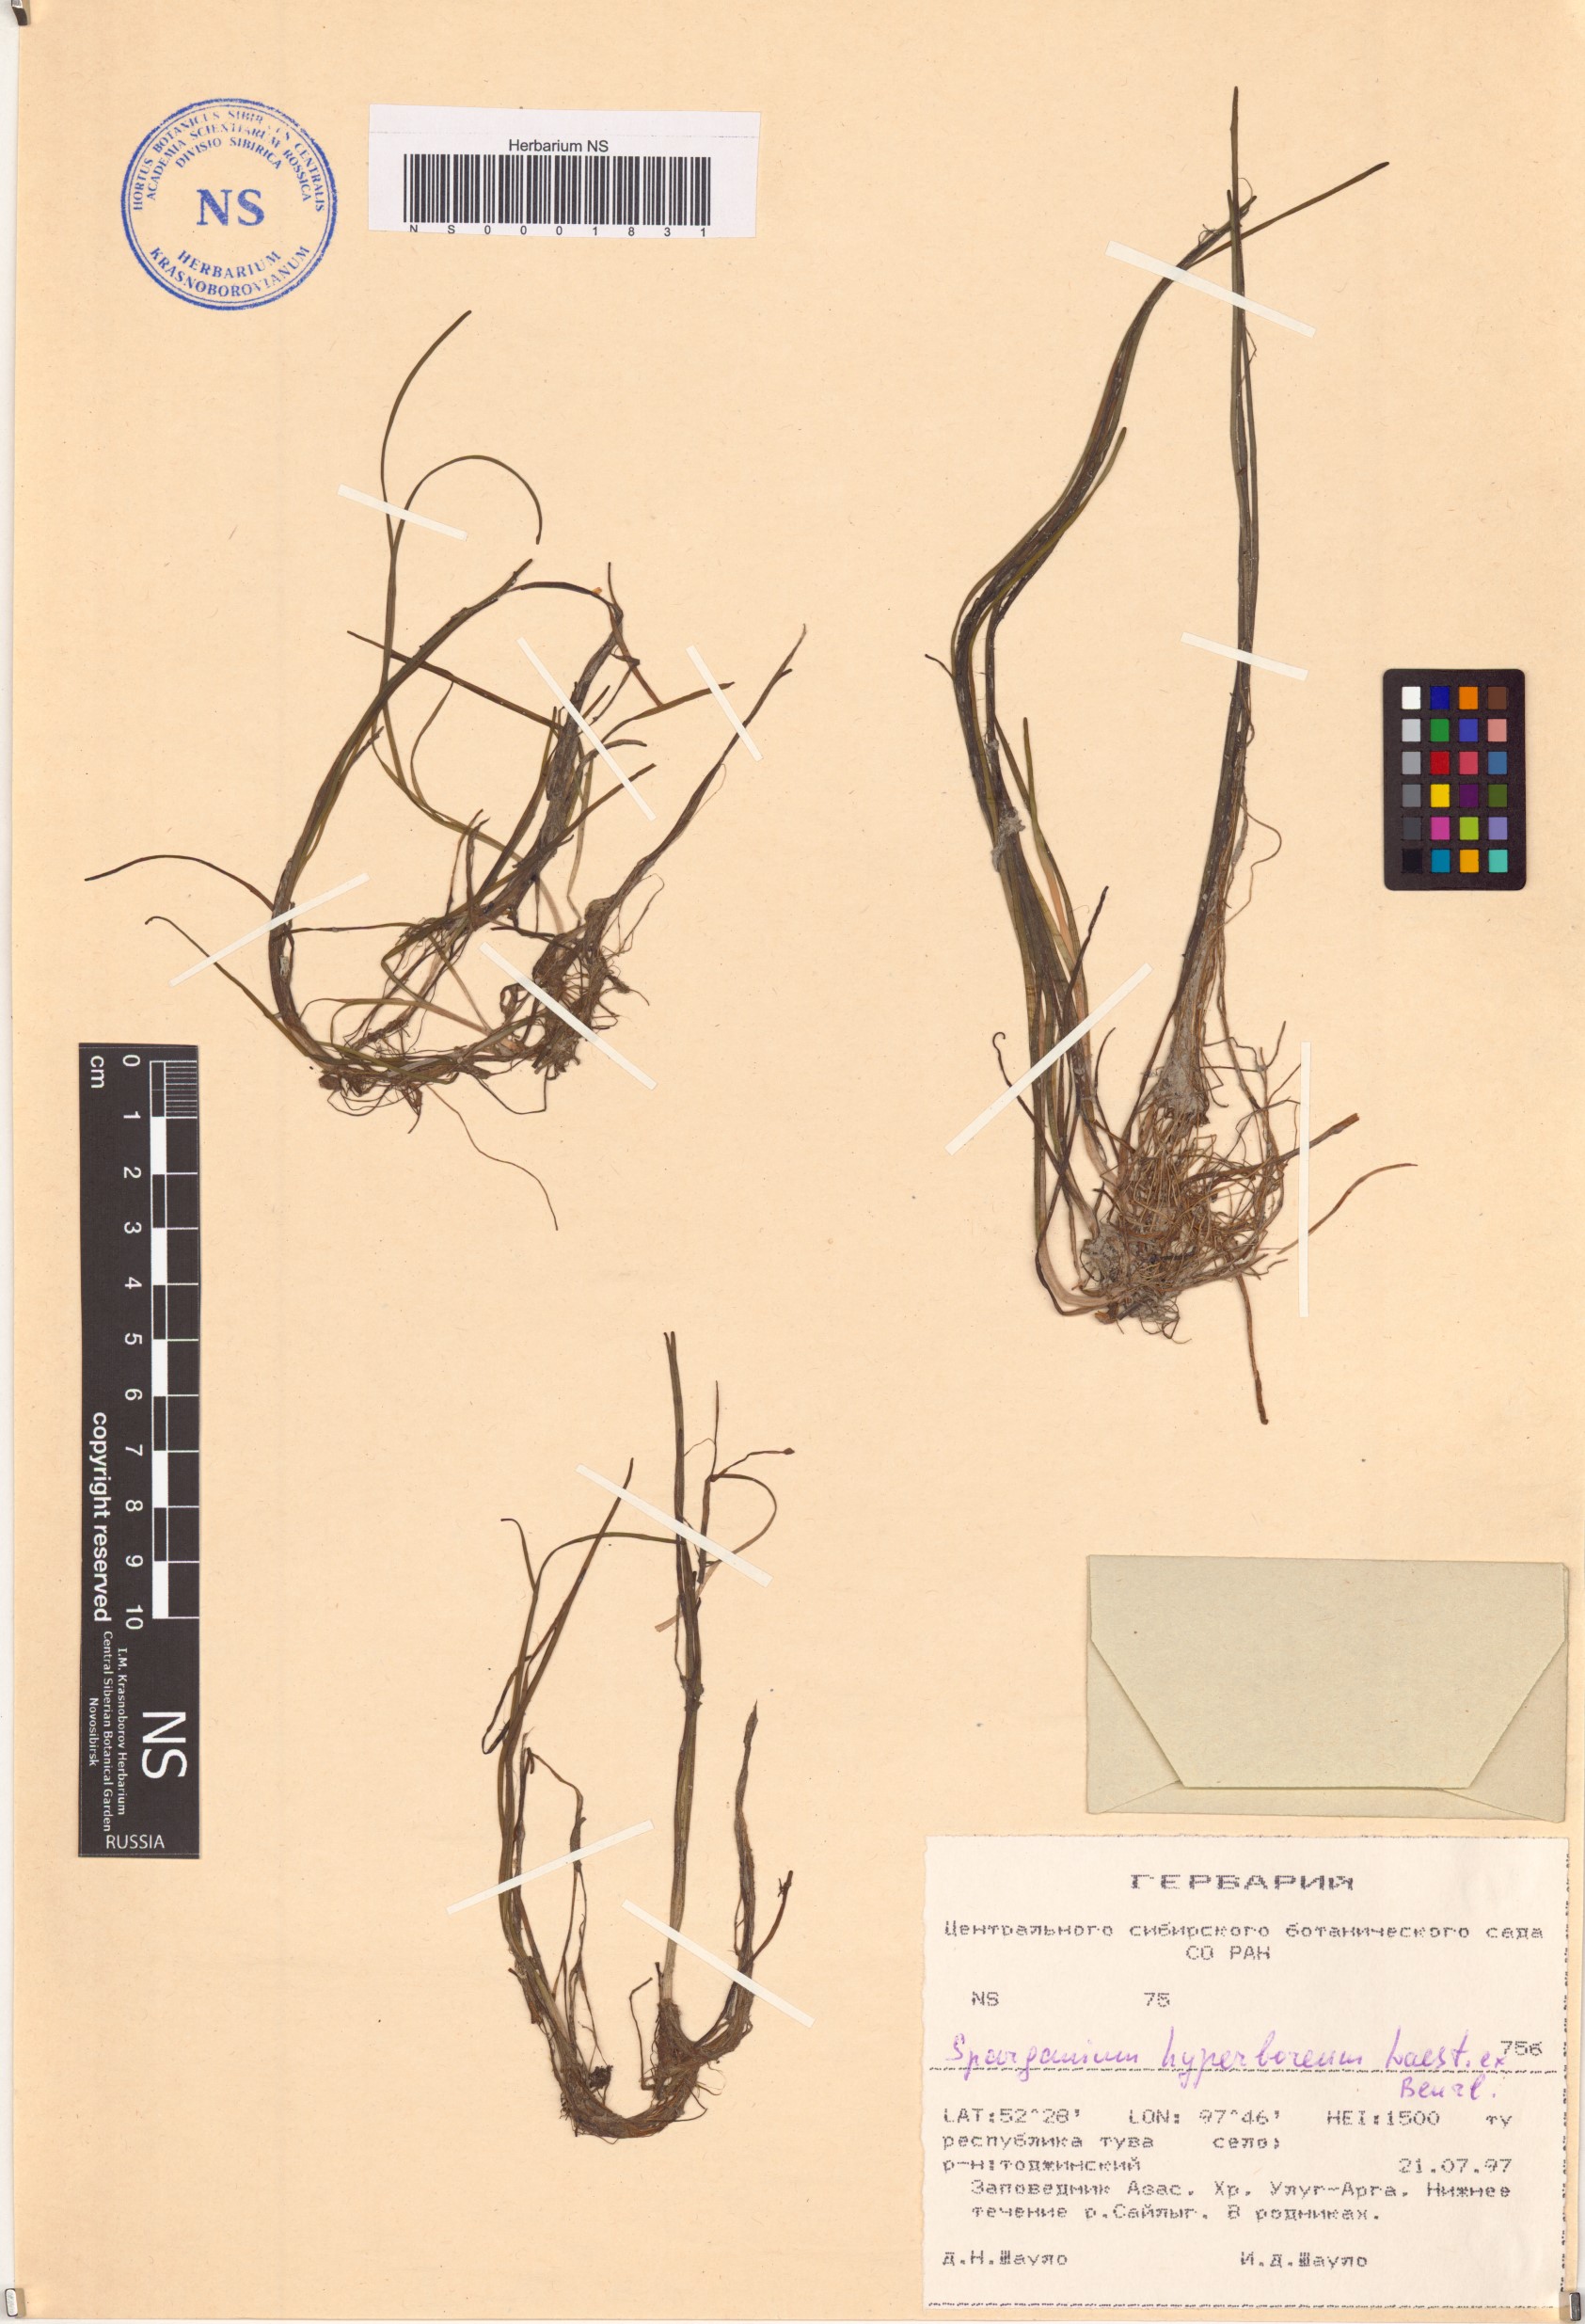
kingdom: Plantae
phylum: Tracheophyta
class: Liliopsida
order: Poales
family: Typhaceae
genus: Sparganium
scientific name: Sparganium hyperboreum
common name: Arctic burreed
